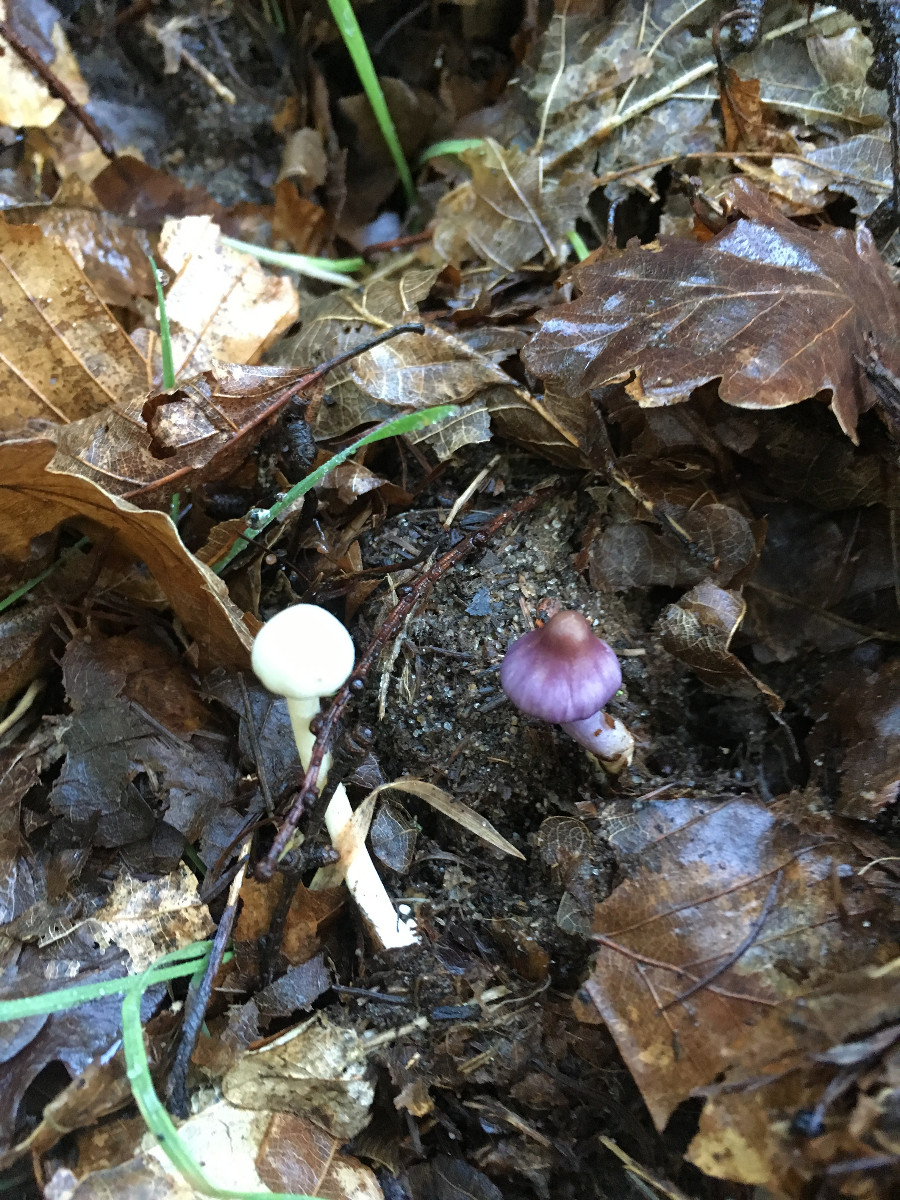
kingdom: Fungi
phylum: Basidiomycota
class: Agaricomycetes
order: Agaricales
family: Inocybaceae
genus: Inocybe
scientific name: Inocybe geophylla
